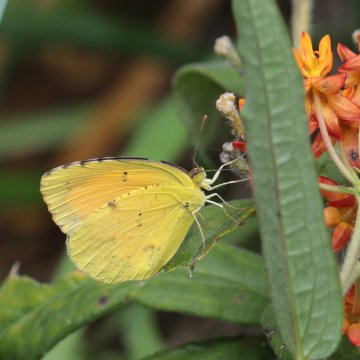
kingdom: Animalia
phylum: Arthropoda
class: Insecta
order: Lepidoptera
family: Pieridae
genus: Abaeis
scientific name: Abaeis nicippe
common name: Sleepy Orange
